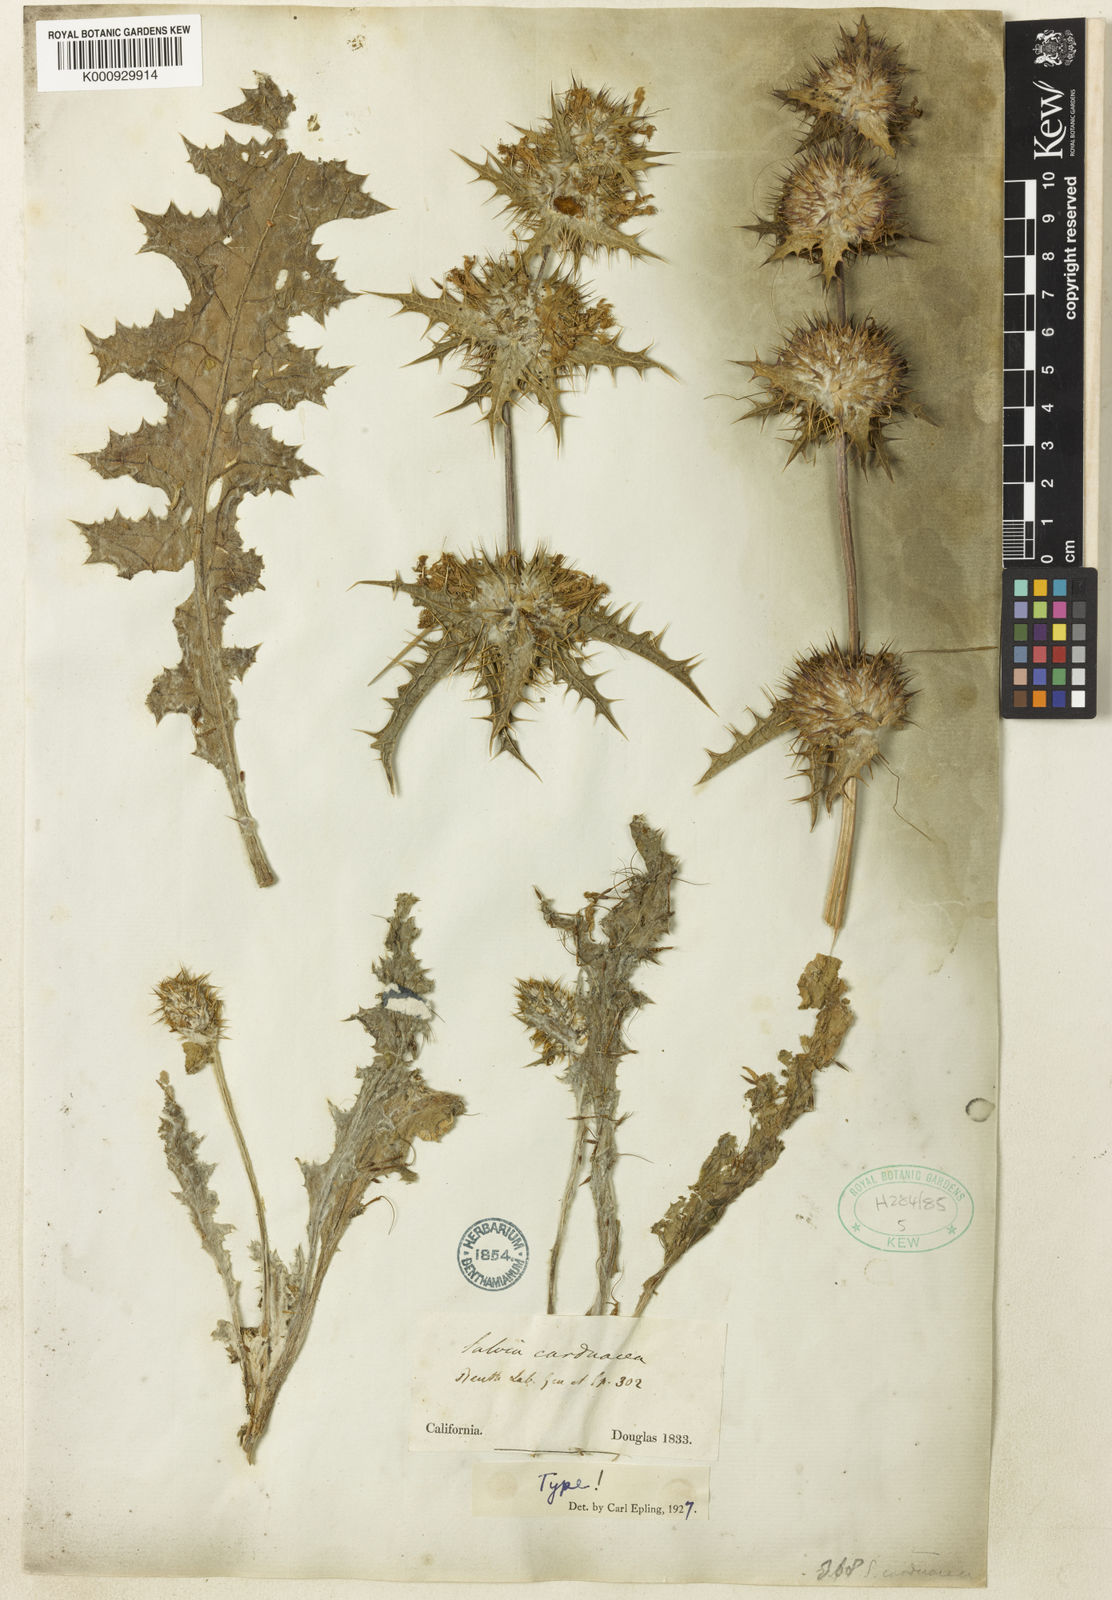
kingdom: Plantae
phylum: Tracheophyta
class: Magnoliopsida
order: Lamiales
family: Lamiaceae
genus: Salvia
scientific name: Salvia carduacea
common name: Thistle sage
